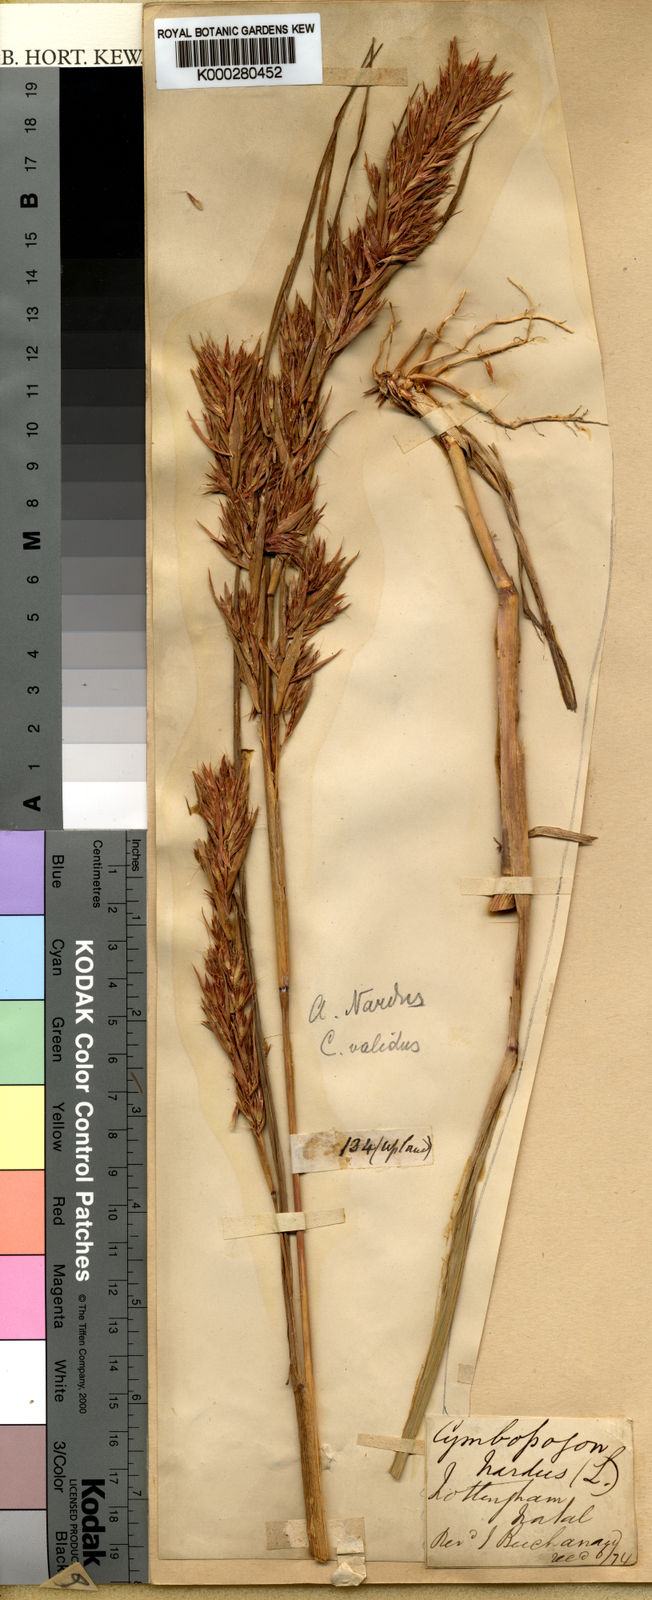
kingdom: Plantae
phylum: Tracheophyta
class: Liliopsida
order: Poales
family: Poaceae
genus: Cymbopogon
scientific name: Cymbopogon nardus
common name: Giant turpentine grass
